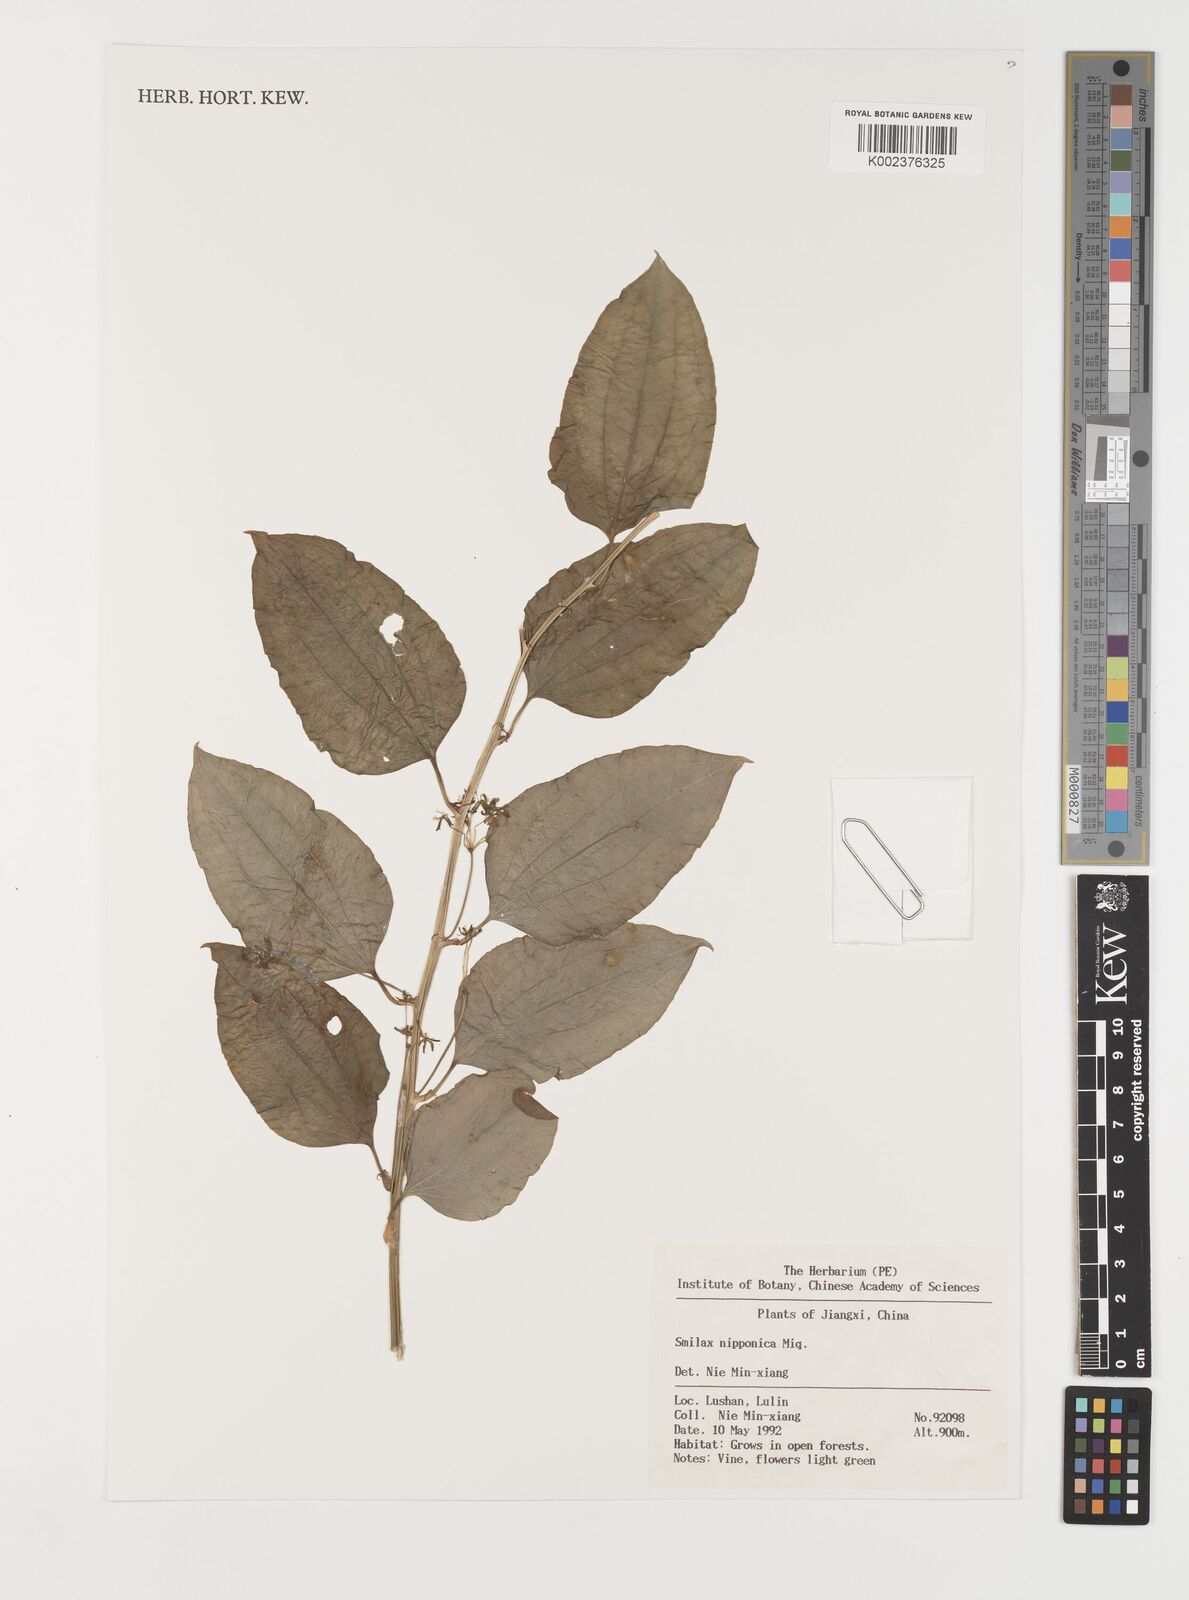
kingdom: Plantae
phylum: Tracheophyta
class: Liliopsida
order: Liliales
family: Smilacaceae
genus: Smilax
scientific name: Smilax nipponica
